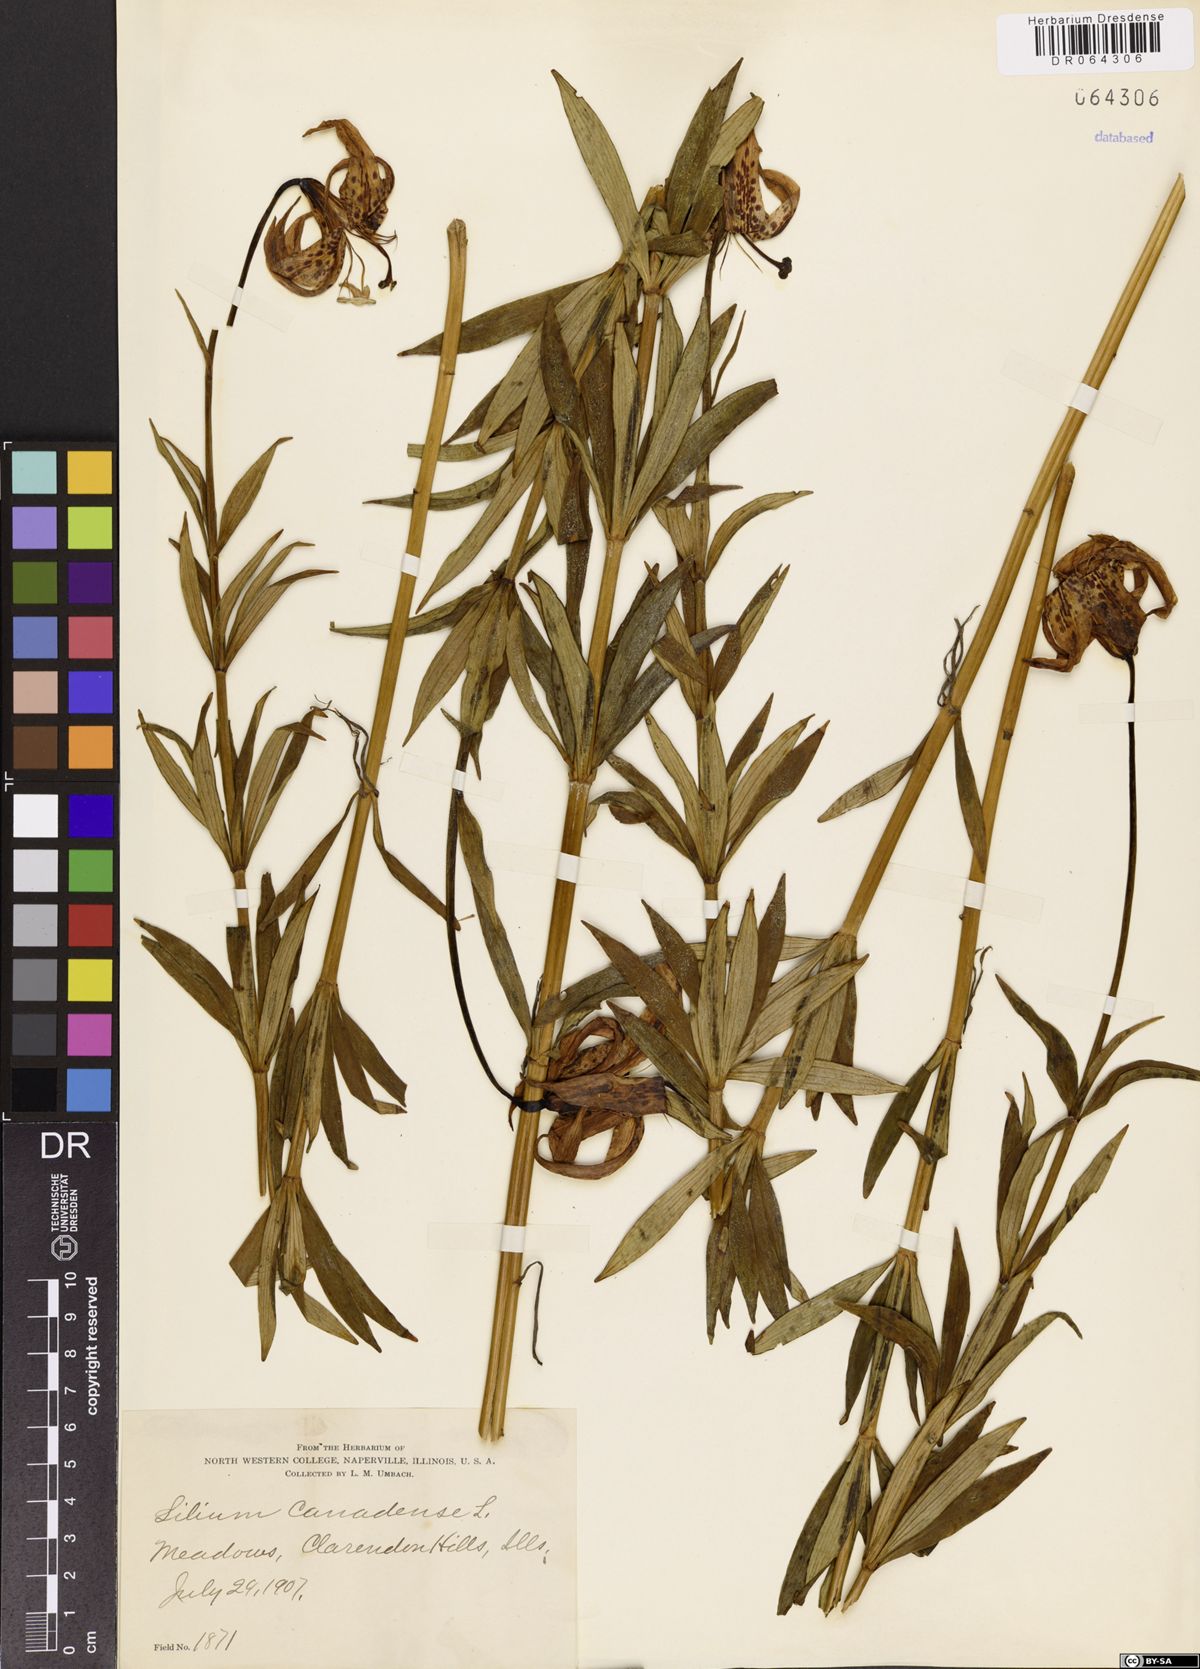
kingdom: Plantae
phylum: Tracheophyta
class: Liliopsida
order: Liliales
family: Liliaceae
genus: Lilium
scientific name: Lilium canadense
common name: Canada lily
